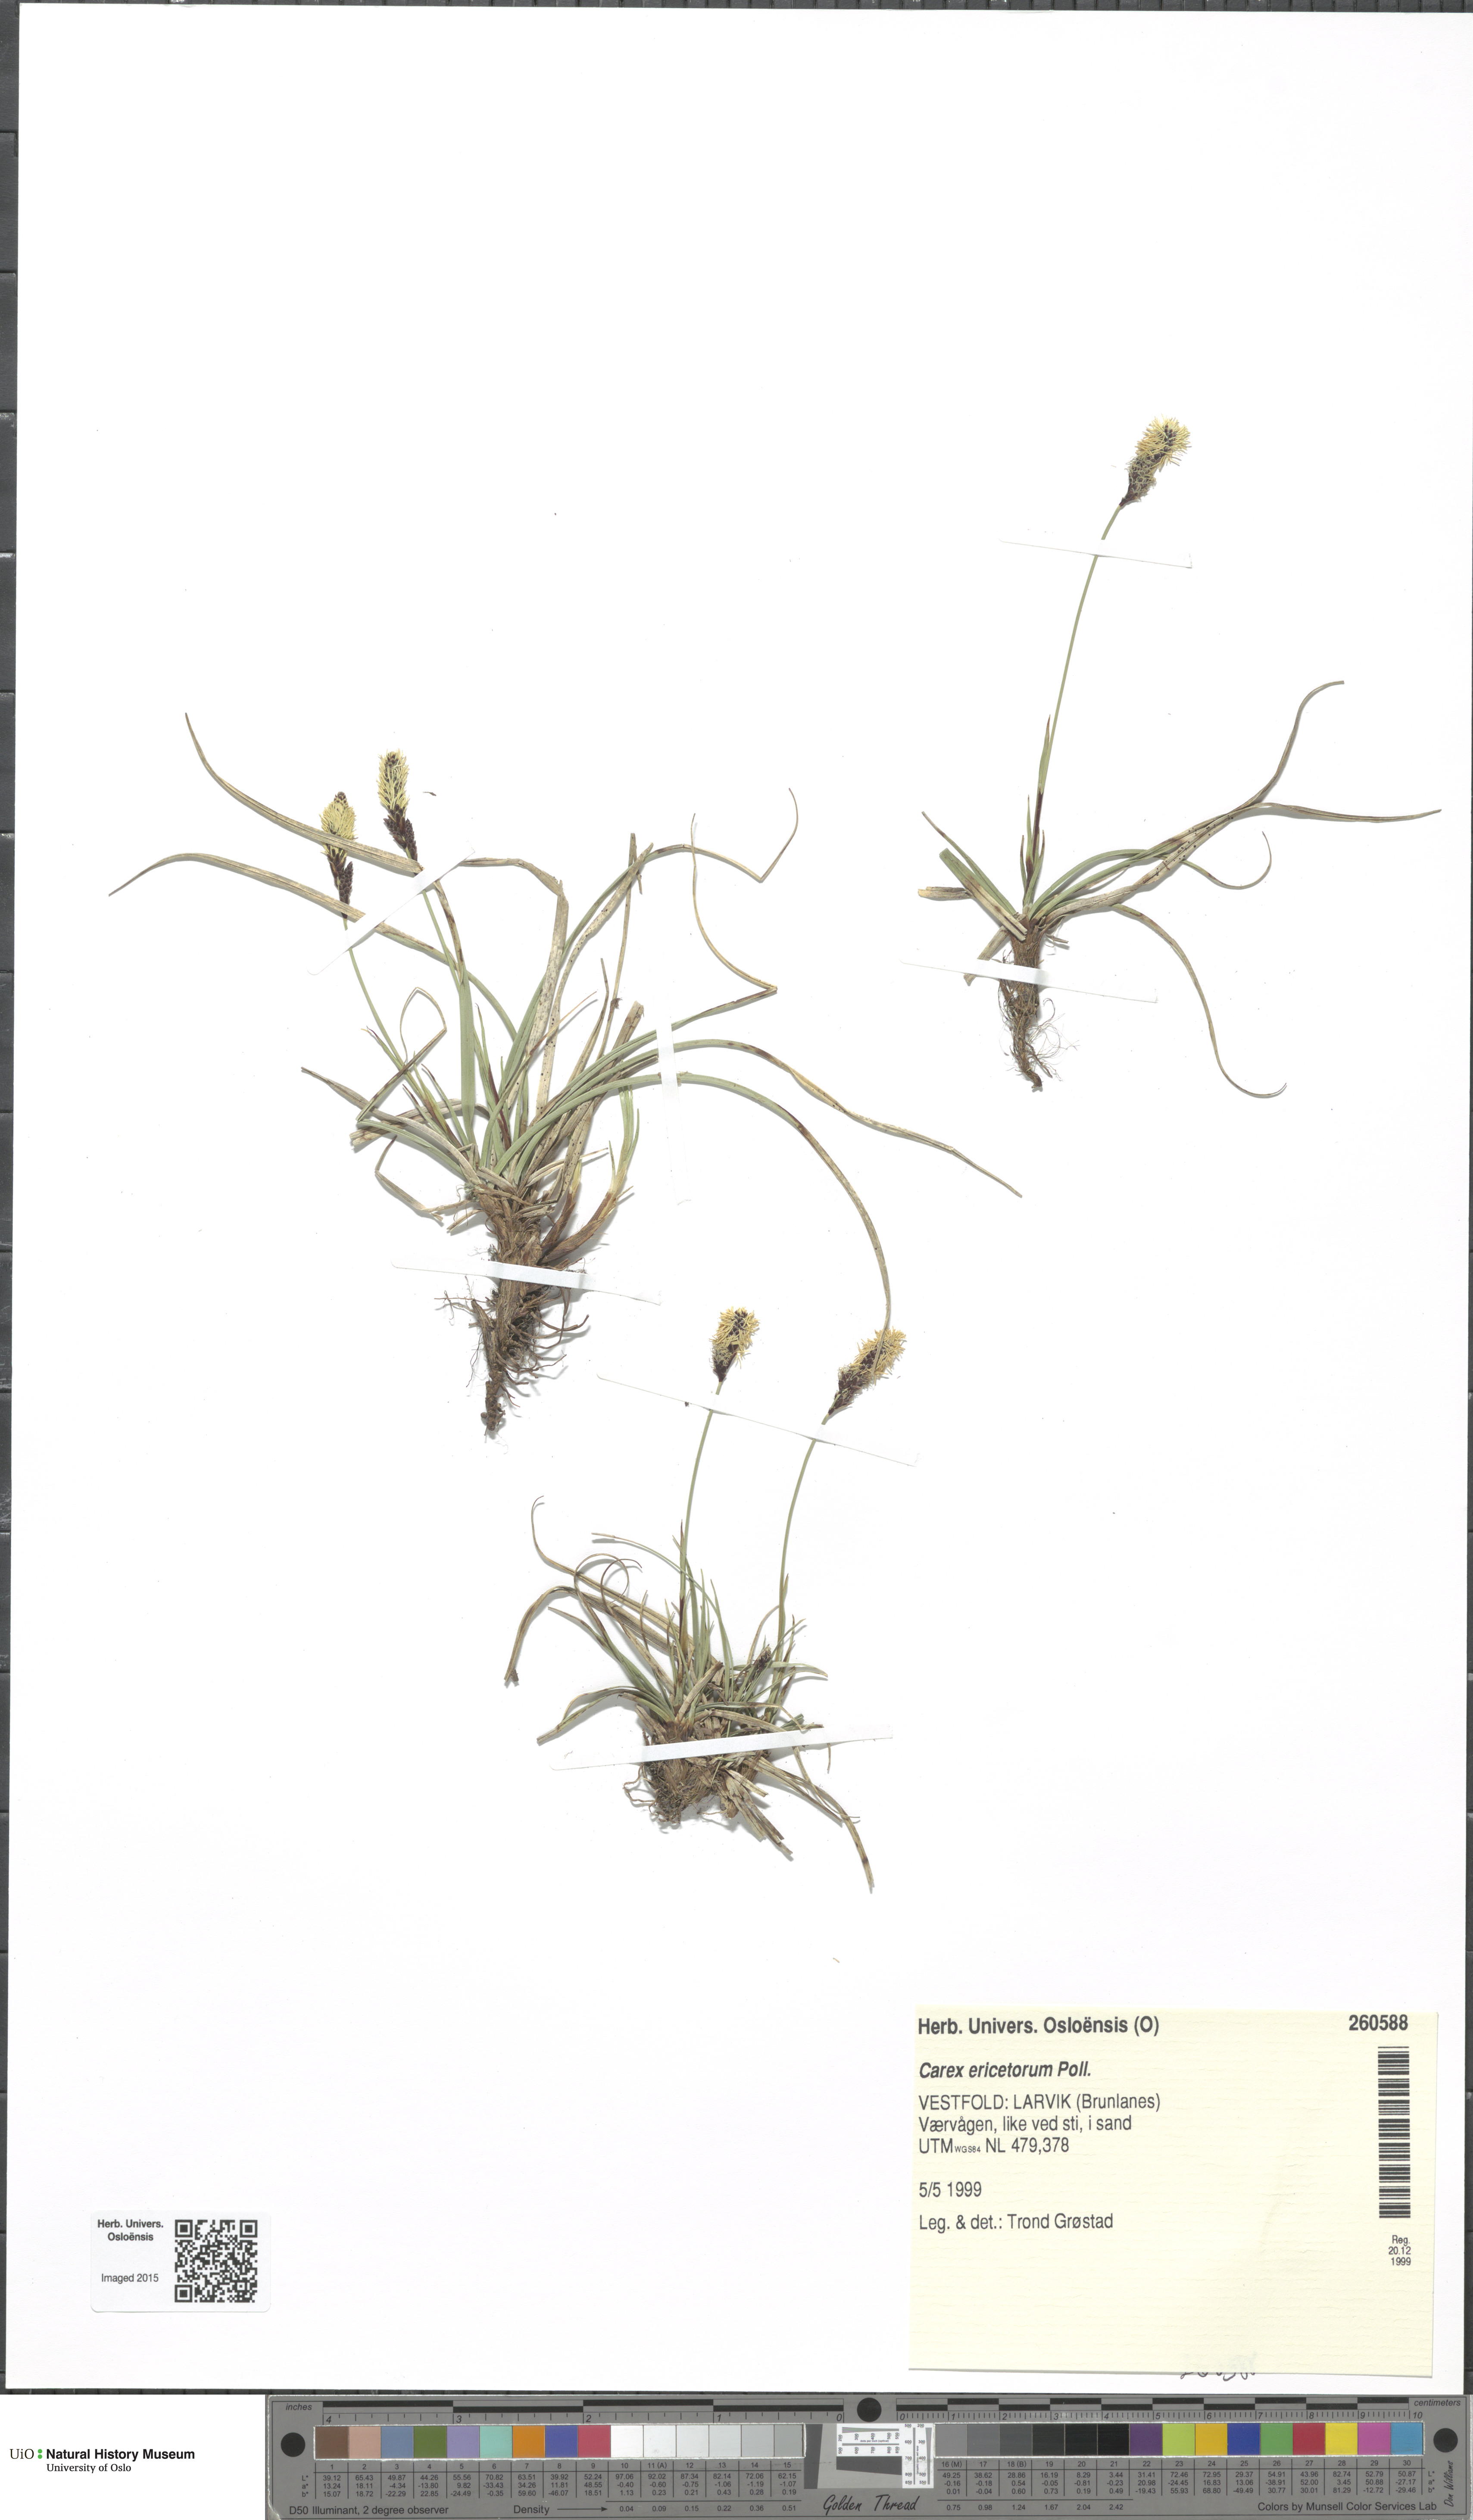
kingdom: Plantae
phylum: Tracheophyta
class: Liliopsida
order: Poales
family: Cyperaceae
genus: Carex
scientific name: Carex ericetorum
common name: Rare spring-sedge
